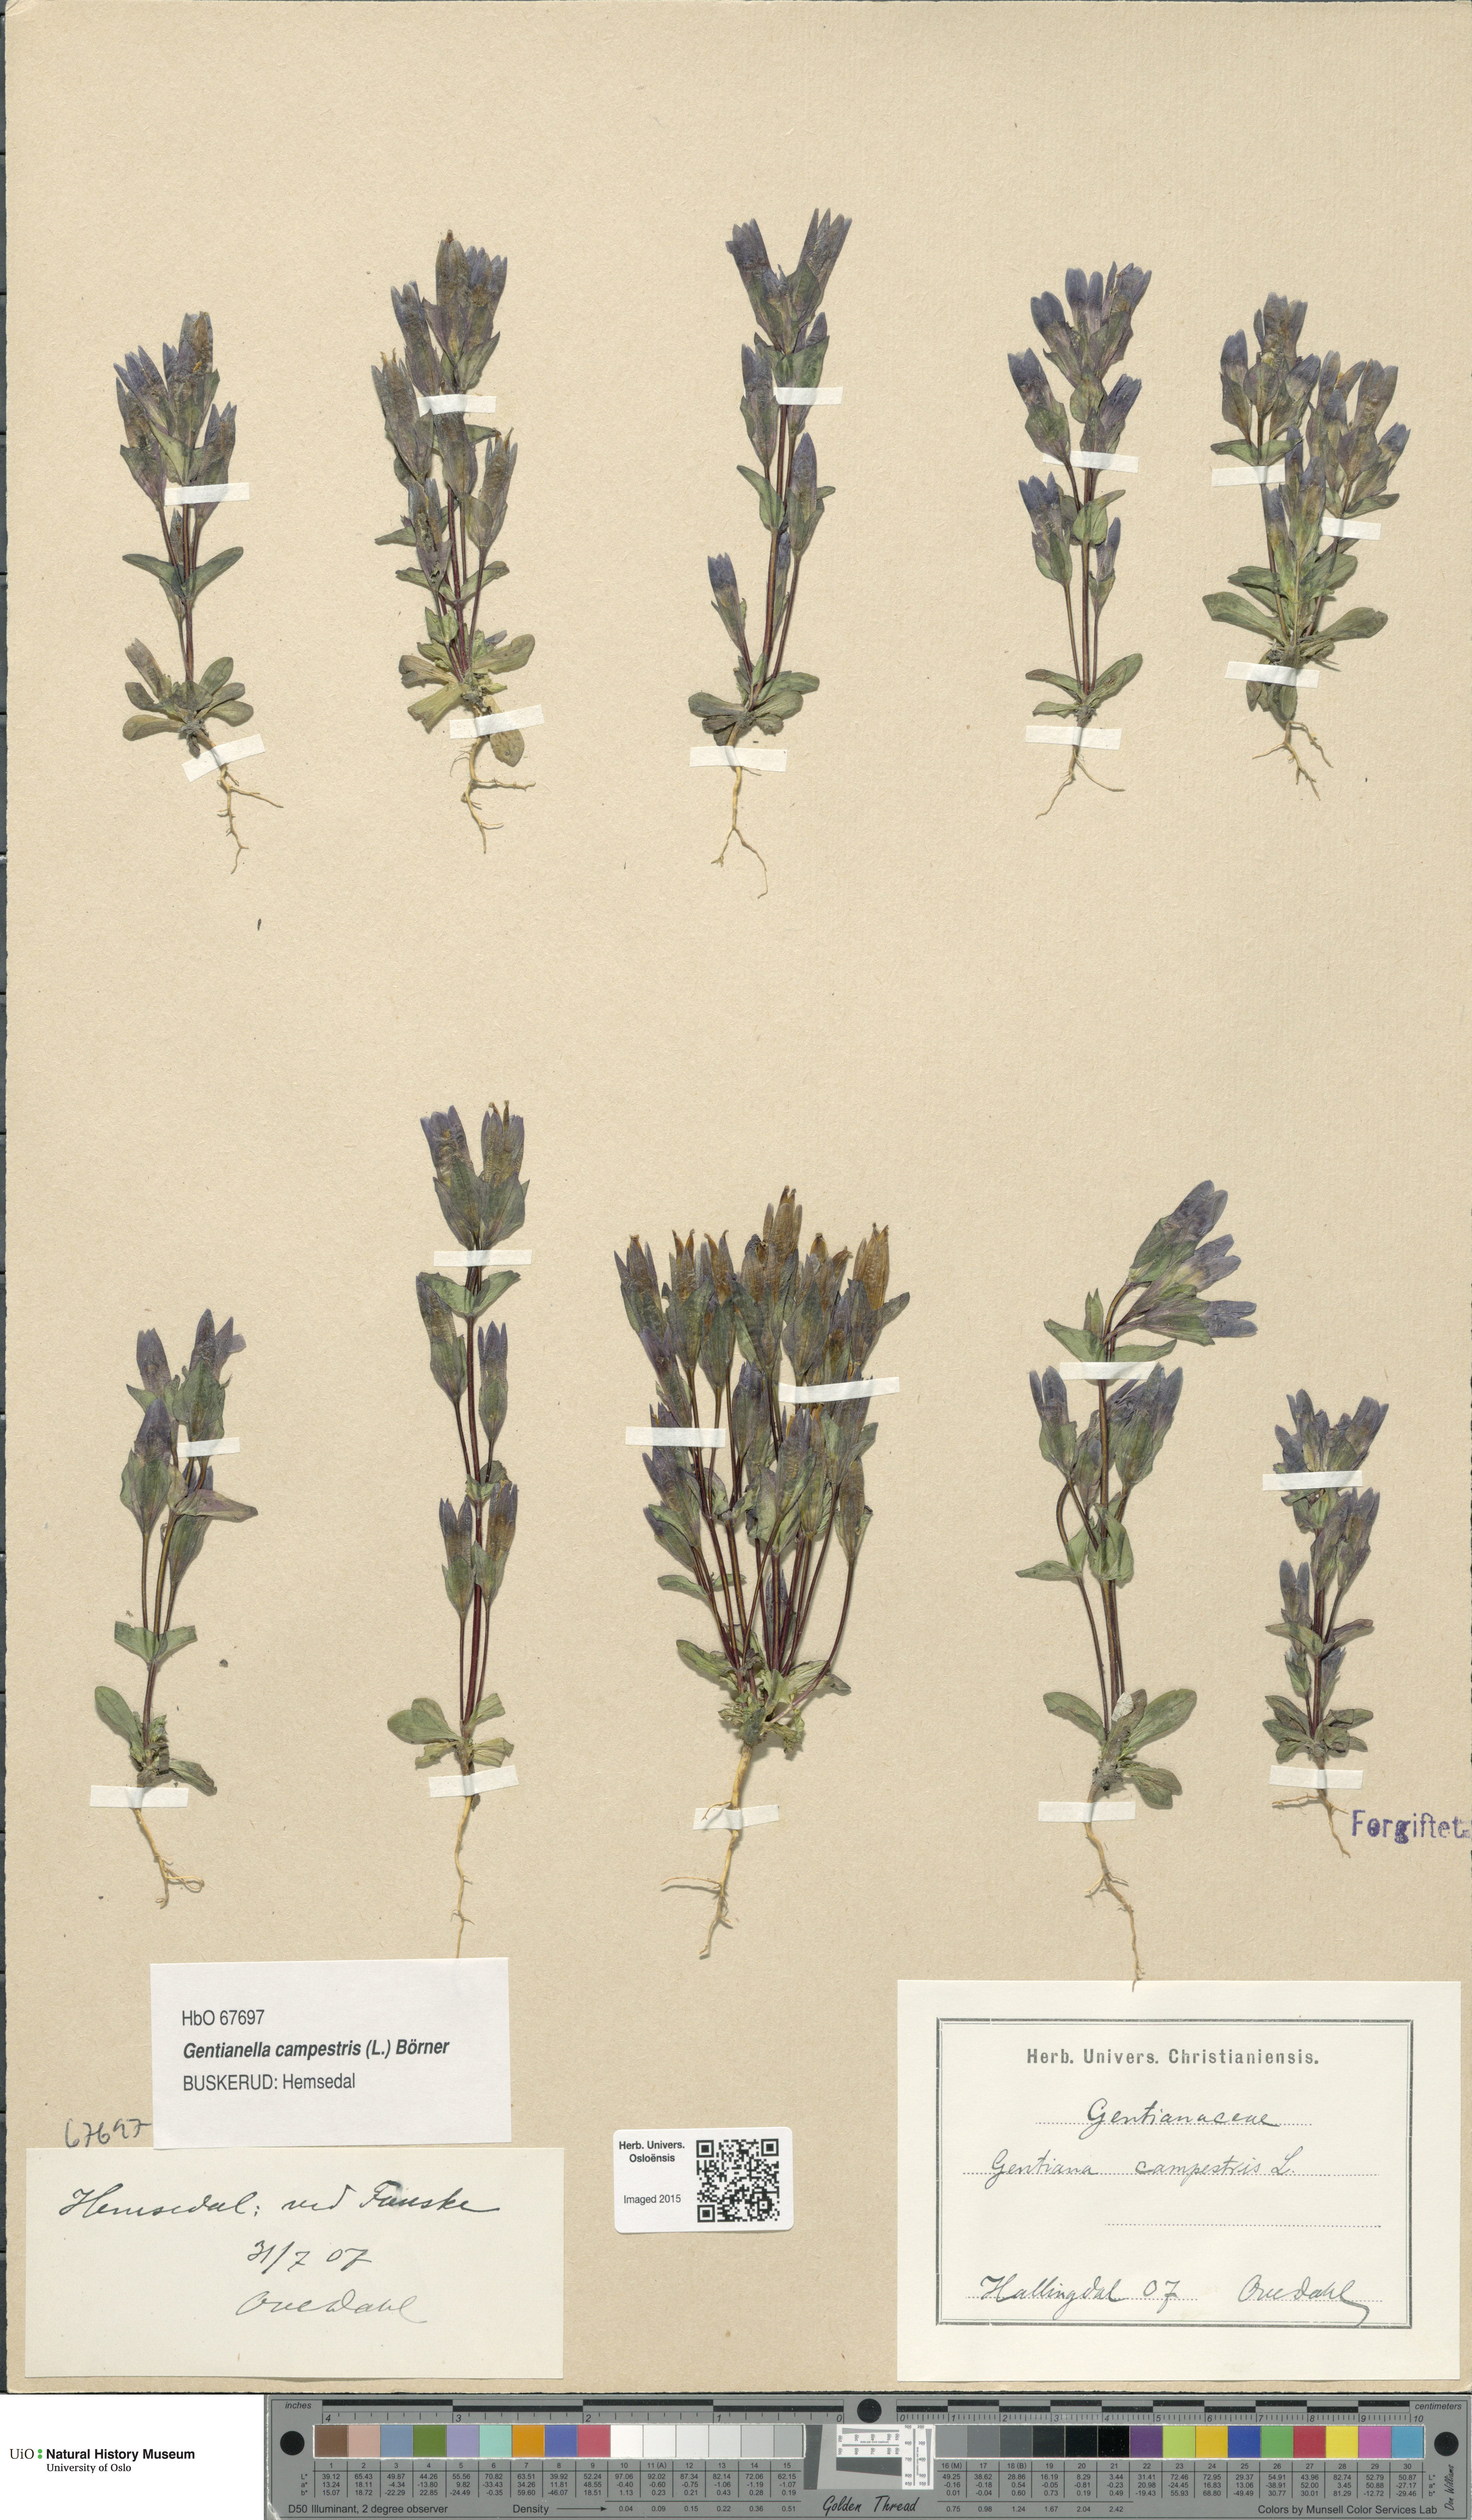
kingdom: Plantae
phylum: Tracheophyta
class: Magnoliopsida
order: Gentianales
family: Gentianaceae
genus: Gentianella
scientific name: Gentianella campestris
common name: Field gentian
